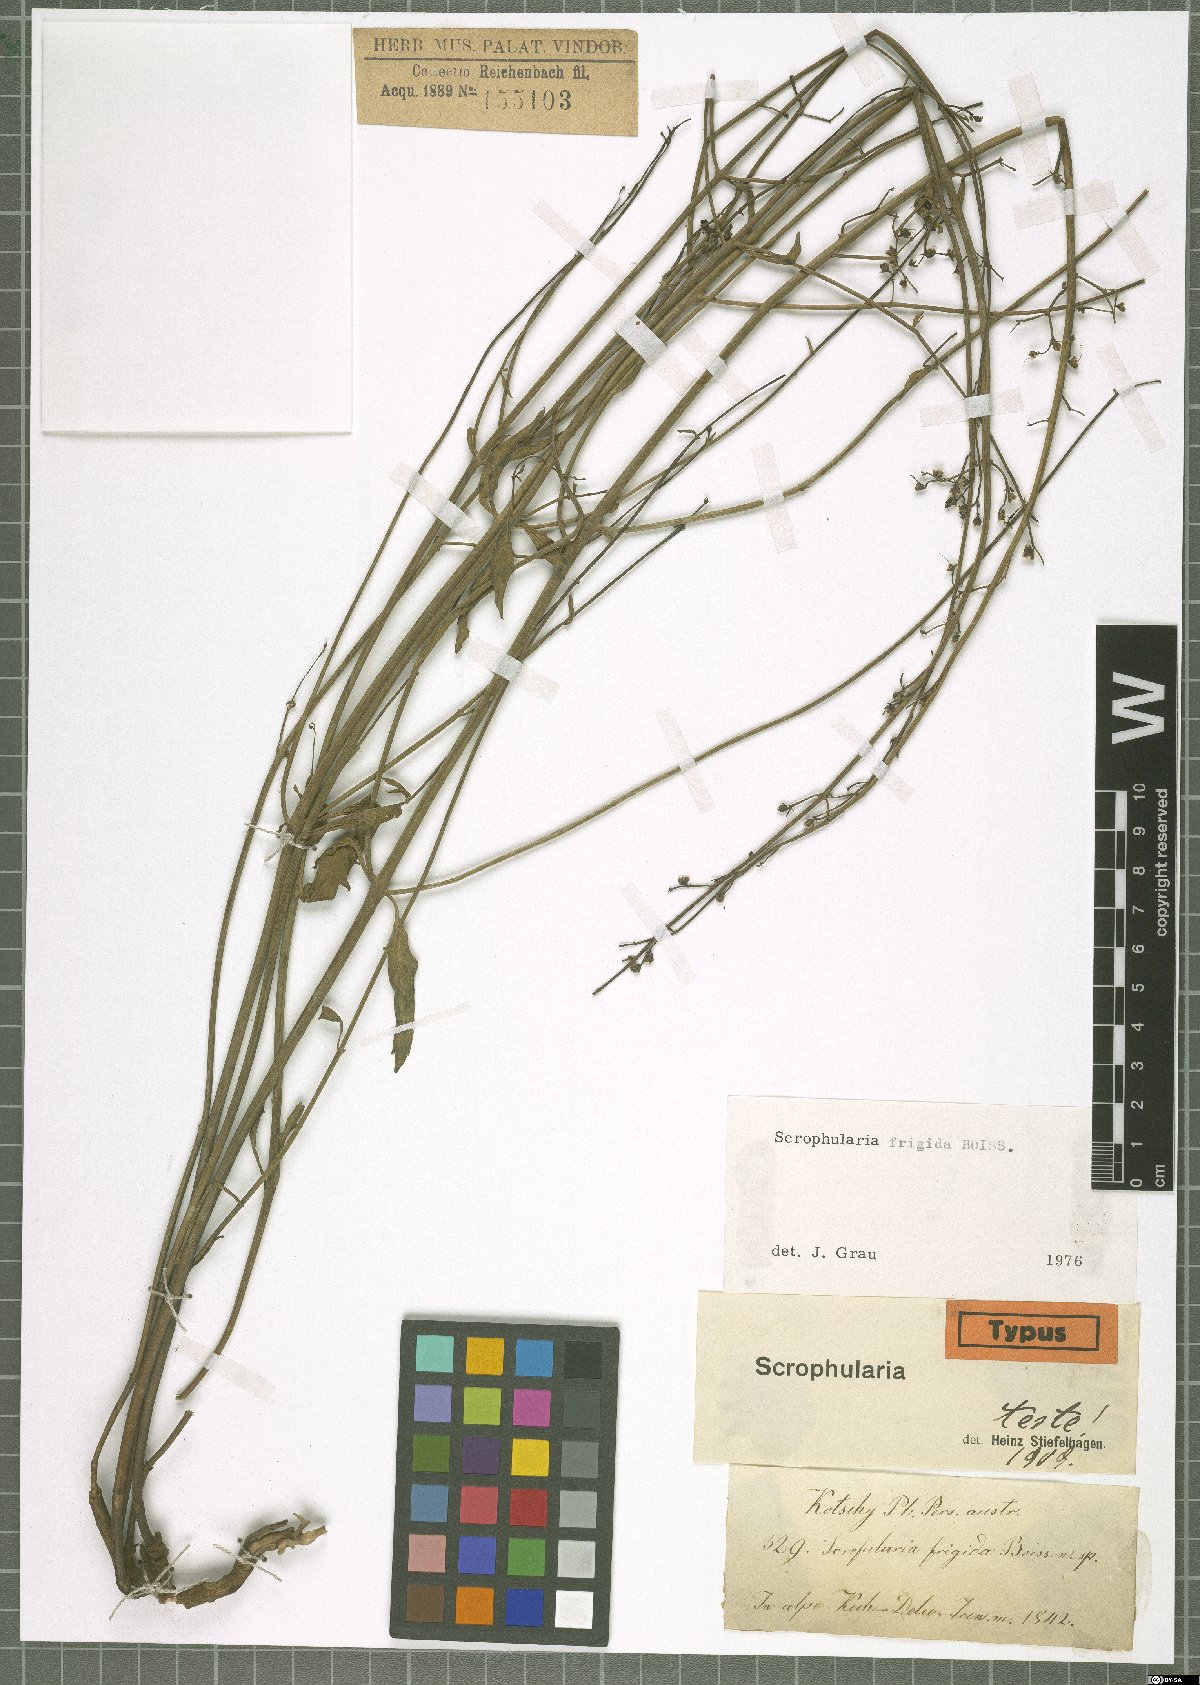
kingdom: Plantae
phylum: Tracheophyta
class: Magnoliopsida
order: Lamiales
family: Scrophulariaceae
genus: Scrophularia
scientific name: Scrophularia frigida
